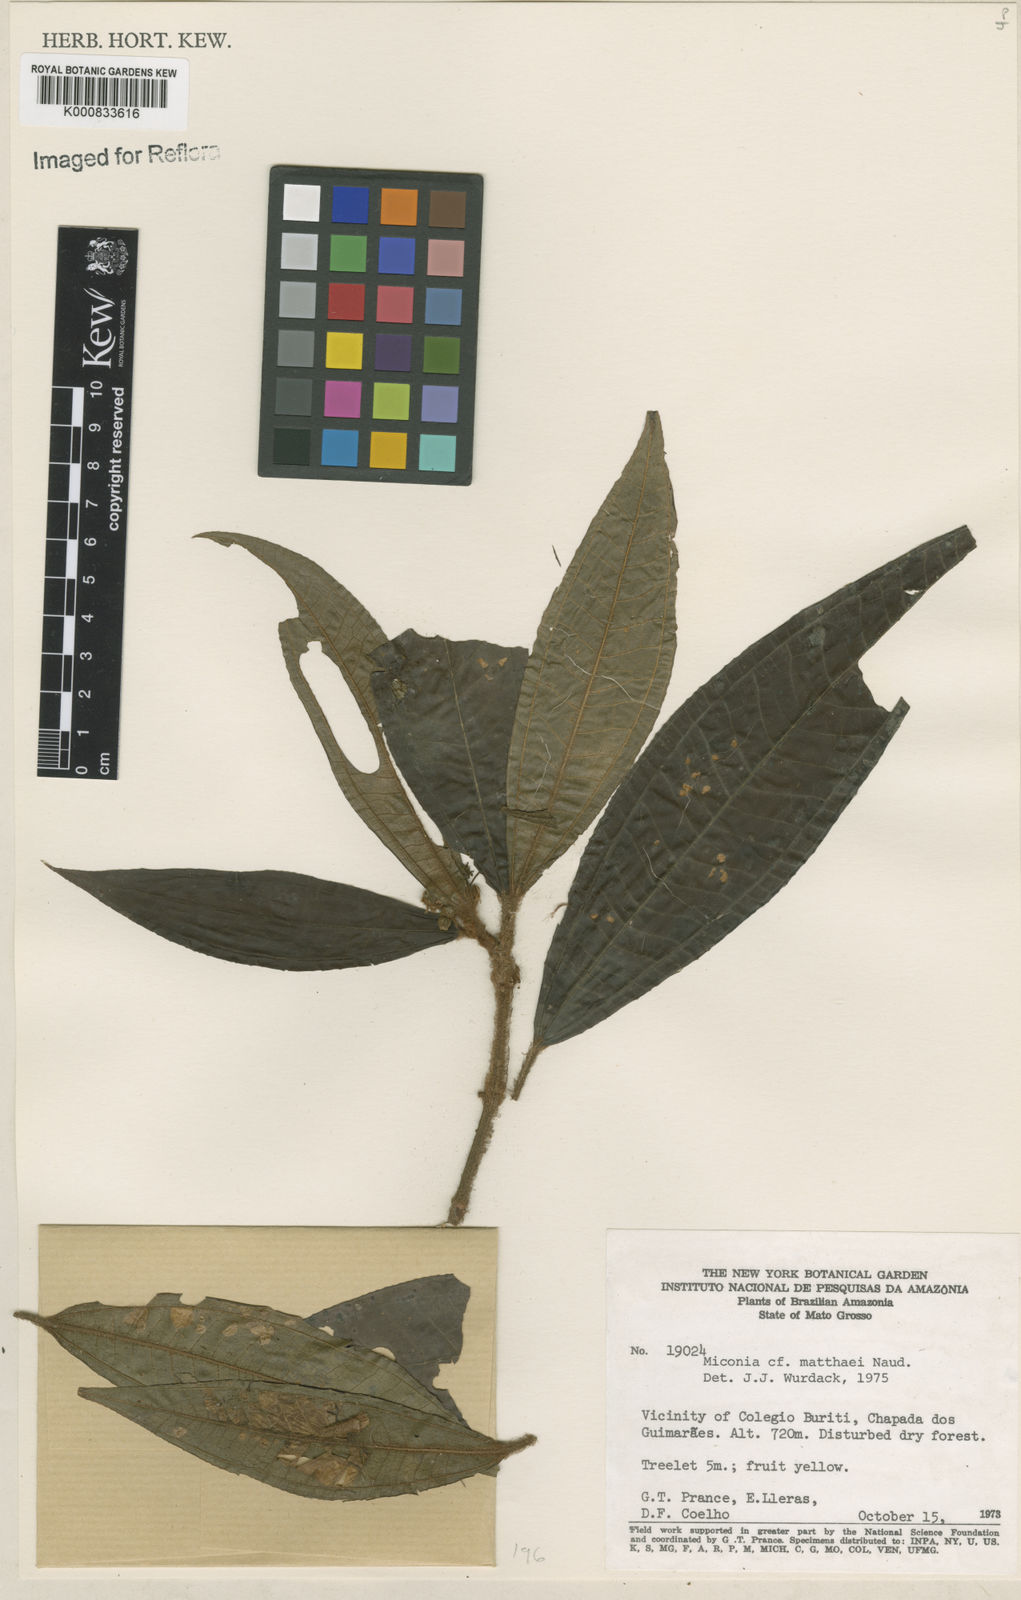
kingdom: Plantae
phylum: Tracheophyta
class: Magnoliopsida
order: Myrtales
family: Melastomataceae
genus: Miconia
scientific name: Miconia matthaei
